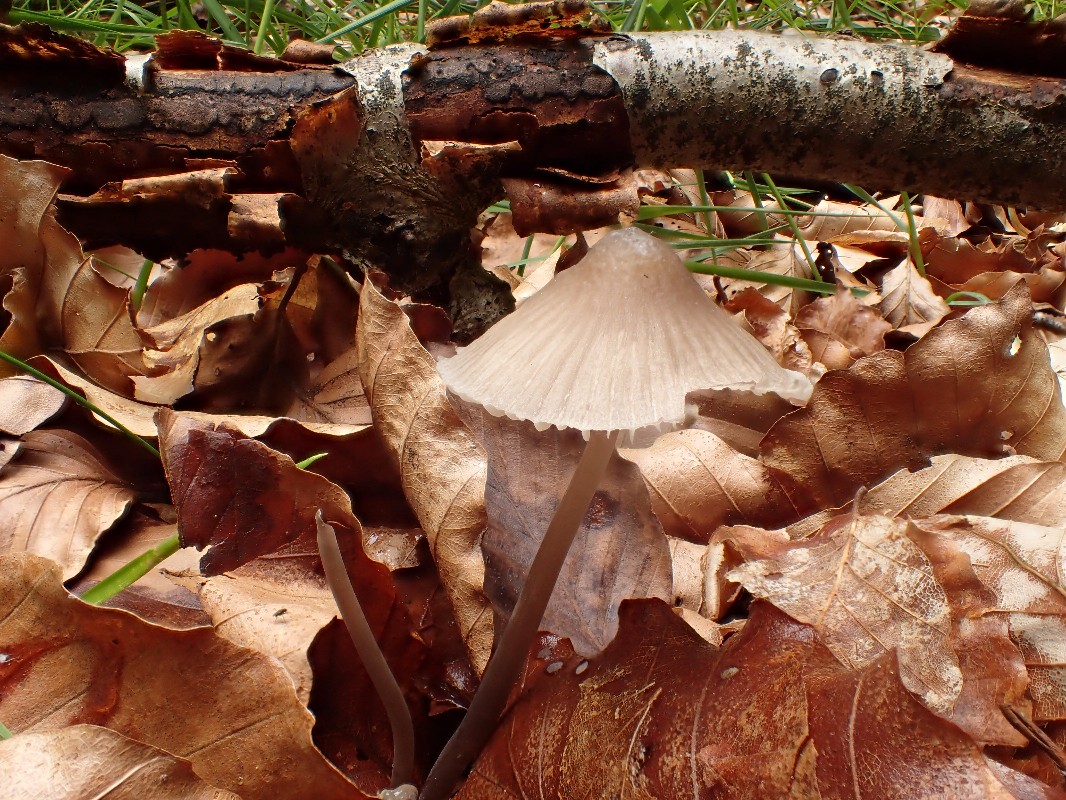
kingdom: Fungi
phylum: Basidiomycota
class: Agaricomycetes
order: Agaricales
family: Mycenaceae
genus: Mycena
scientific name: Mycena abramsii
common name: sommer-huesvamp
